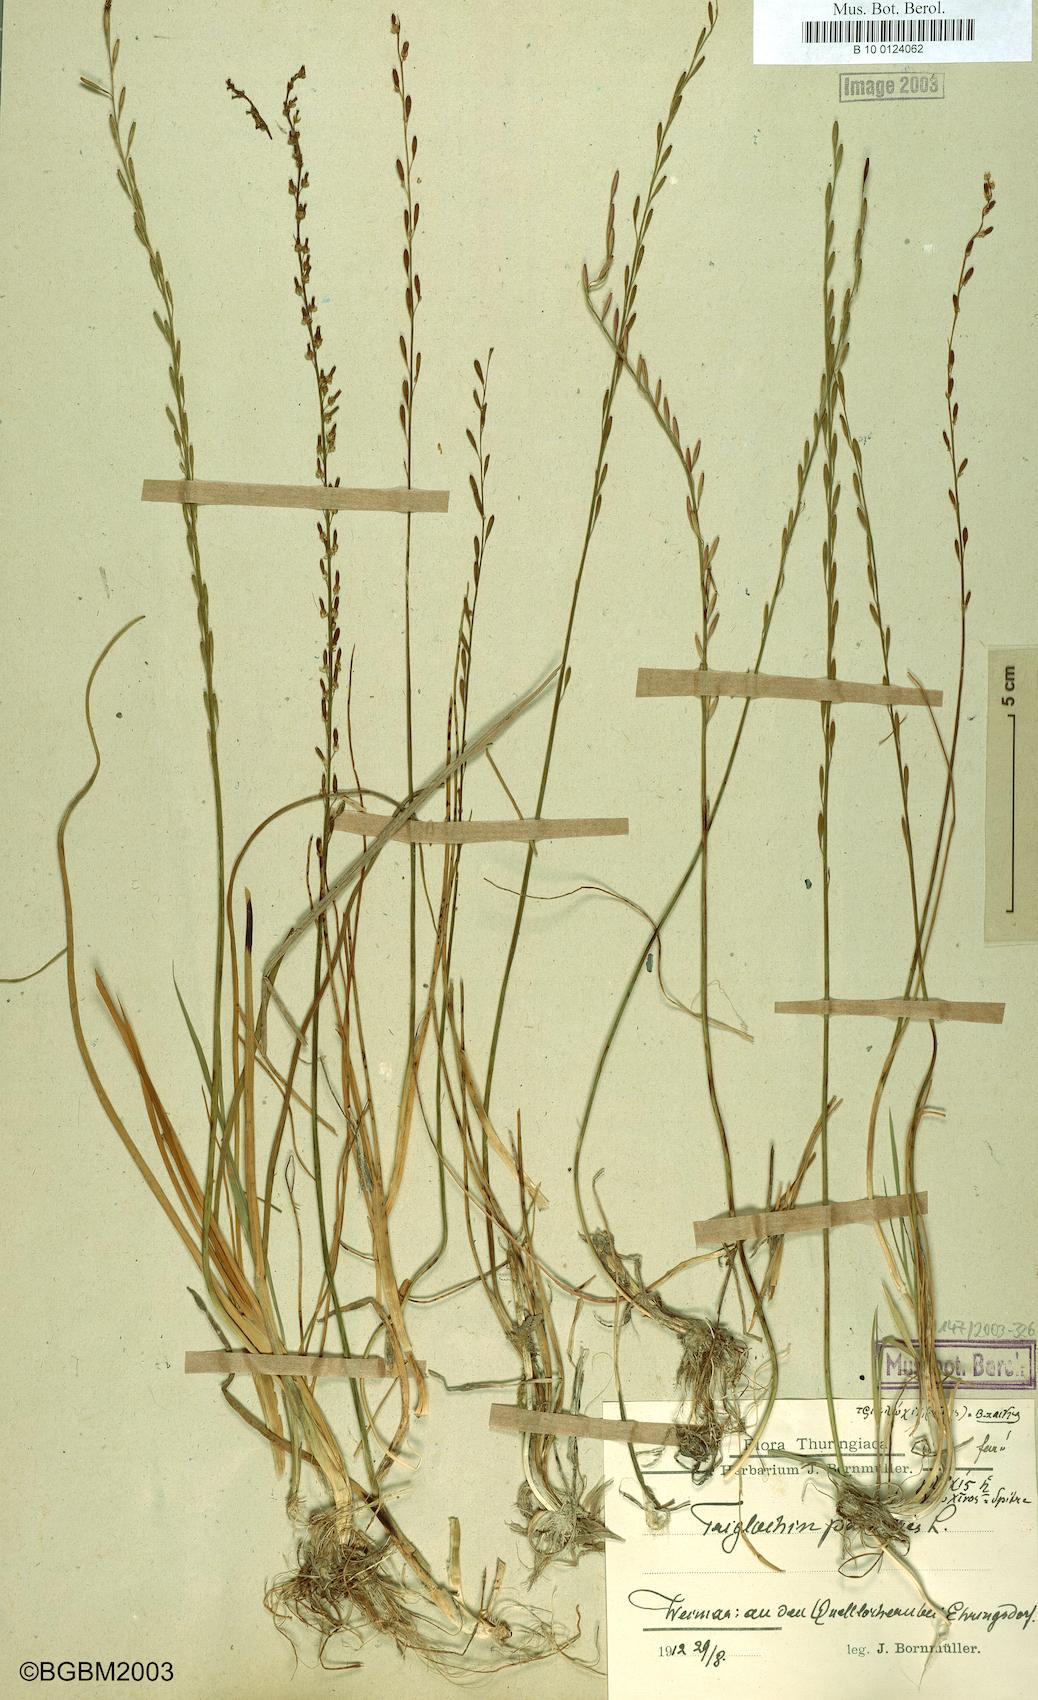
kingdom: Plantae
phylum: Tracheophyta
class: Liliopsida
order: Alismatales
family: Juncaginaceae
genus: Triglochin
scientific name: Triglochin palustris
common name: Marsh arrowgrass
